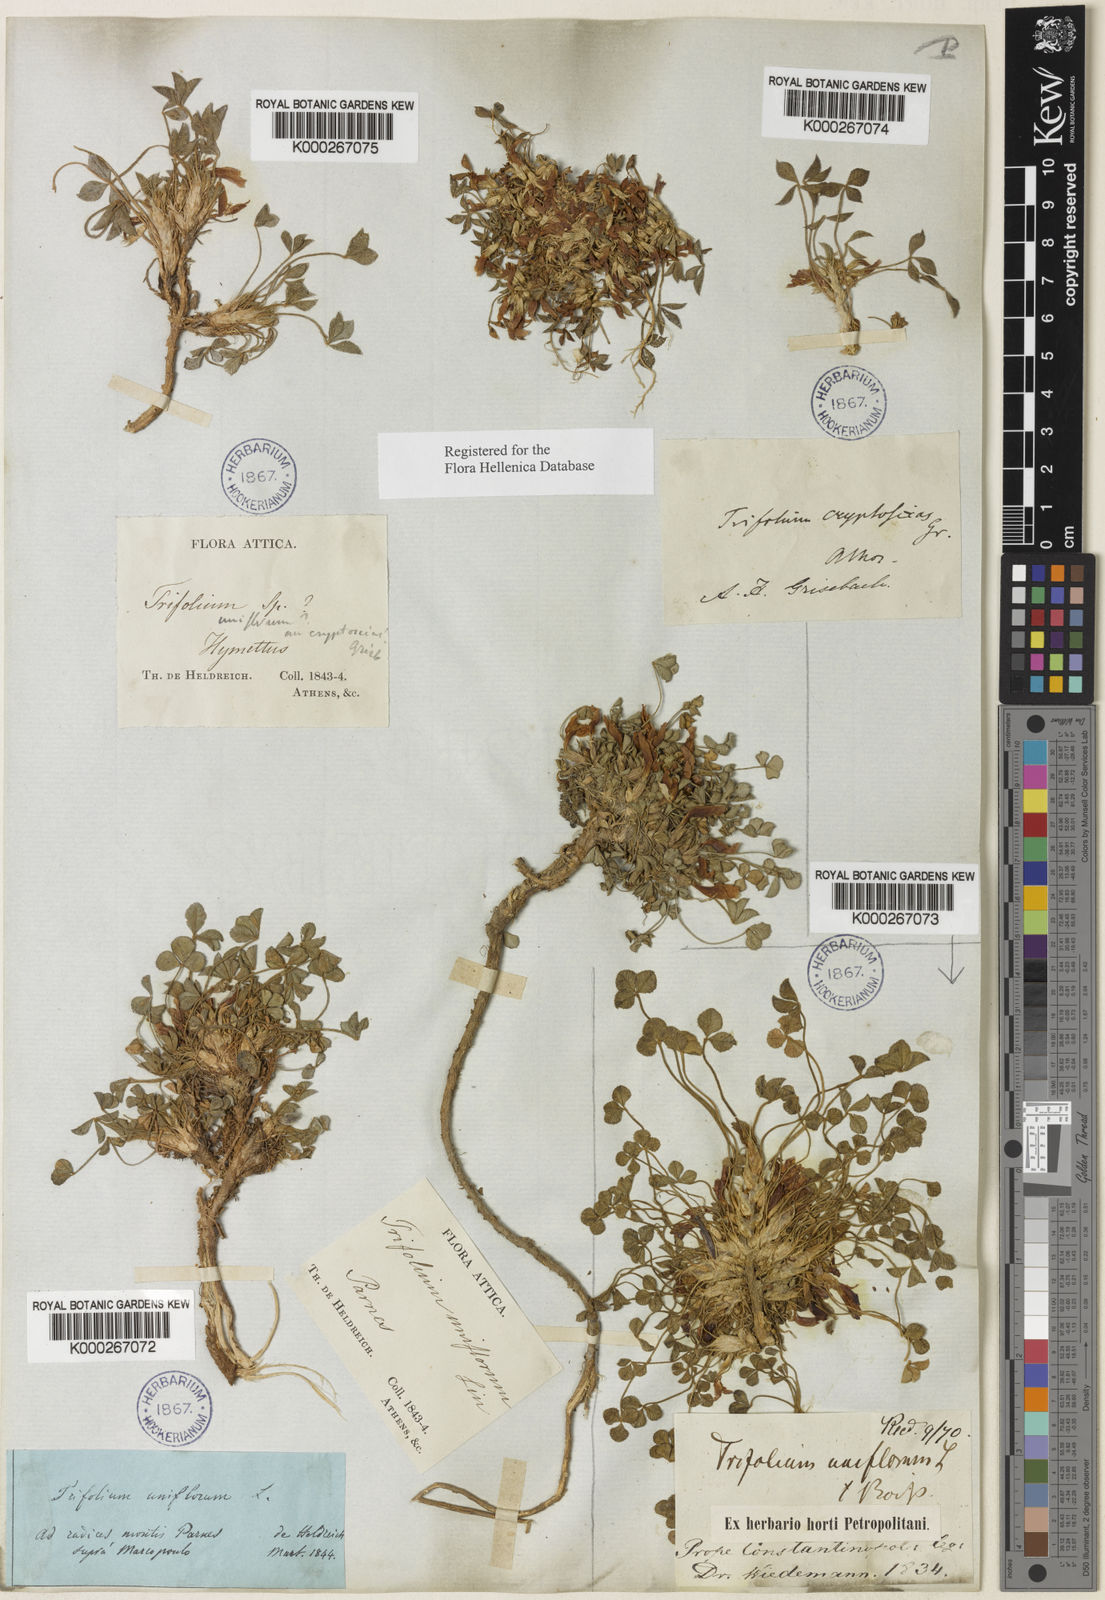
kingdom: Plantae
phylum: Tracheophyta
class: Magnoliopsida
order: Fabales
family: Fabaceae
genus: Trifolium
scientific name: Trifolium uniflorum
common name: One-flower clover
